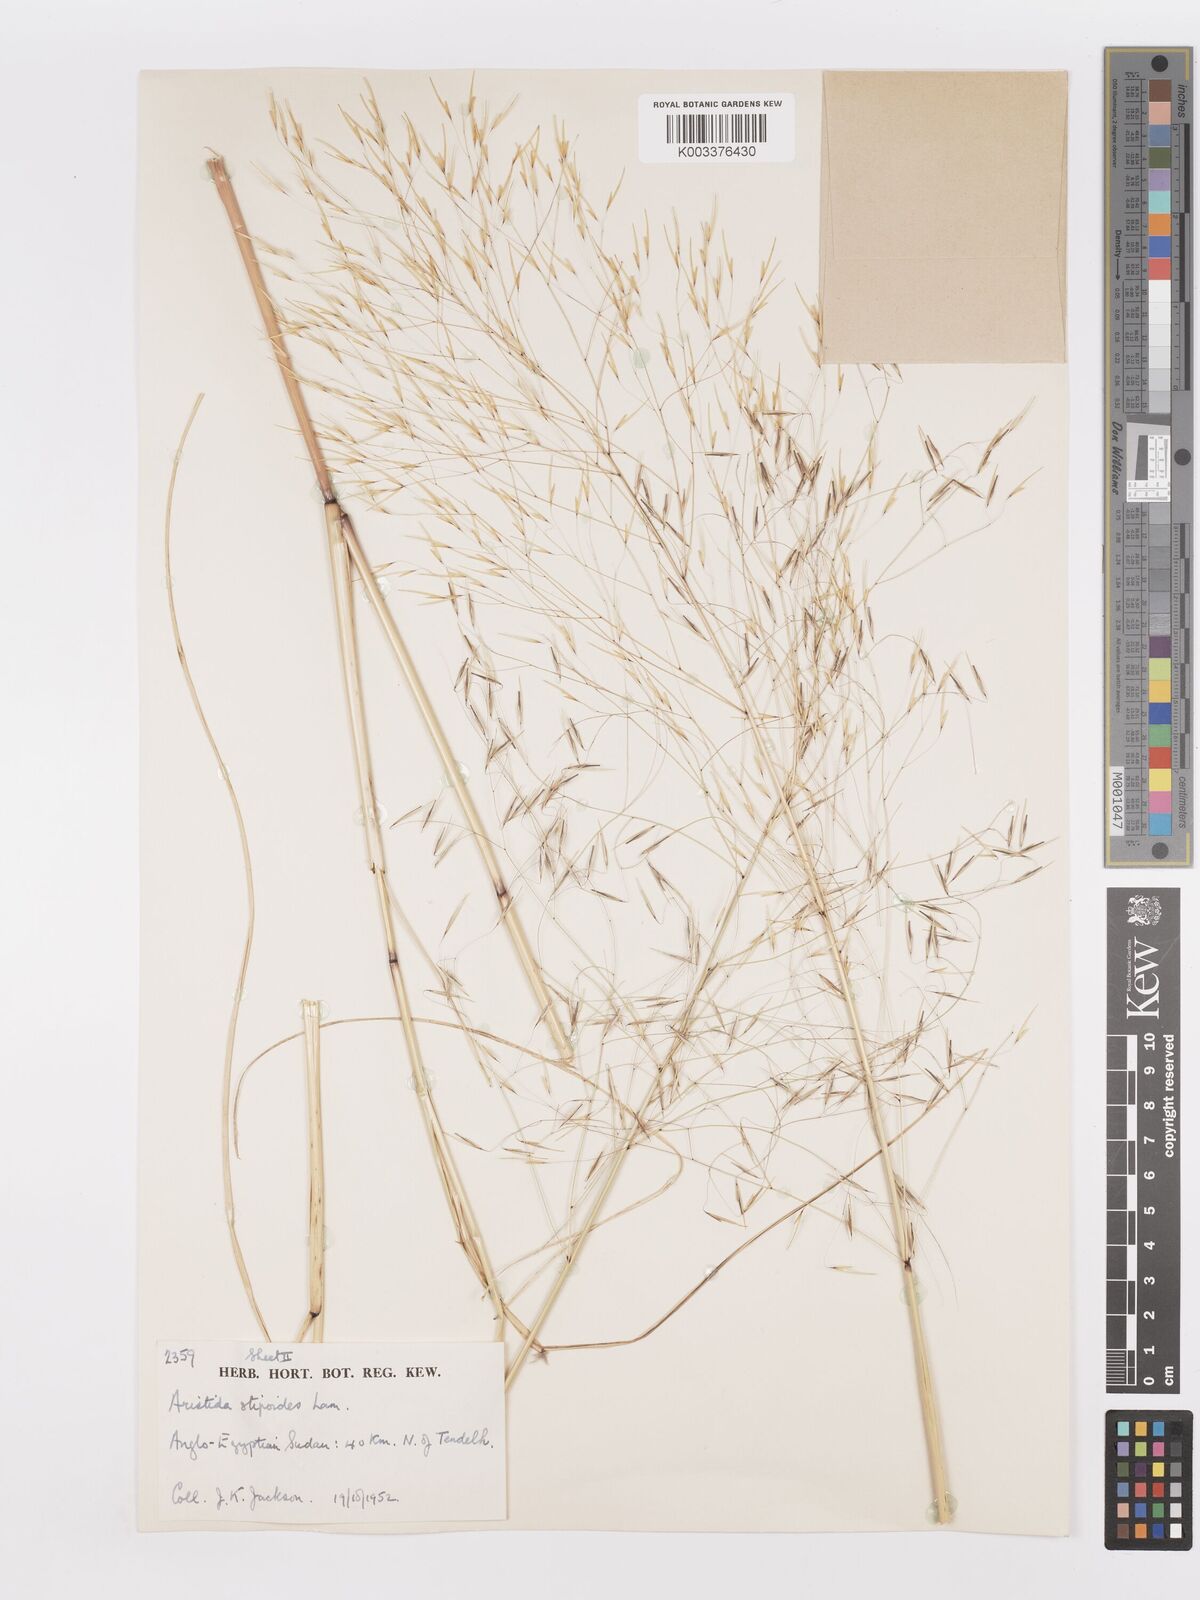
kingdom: Plantae
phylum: Tracheophyta
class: Liliopsida
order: Poales
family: Poaceae
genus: Aristida
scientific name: Aristida stipoides
